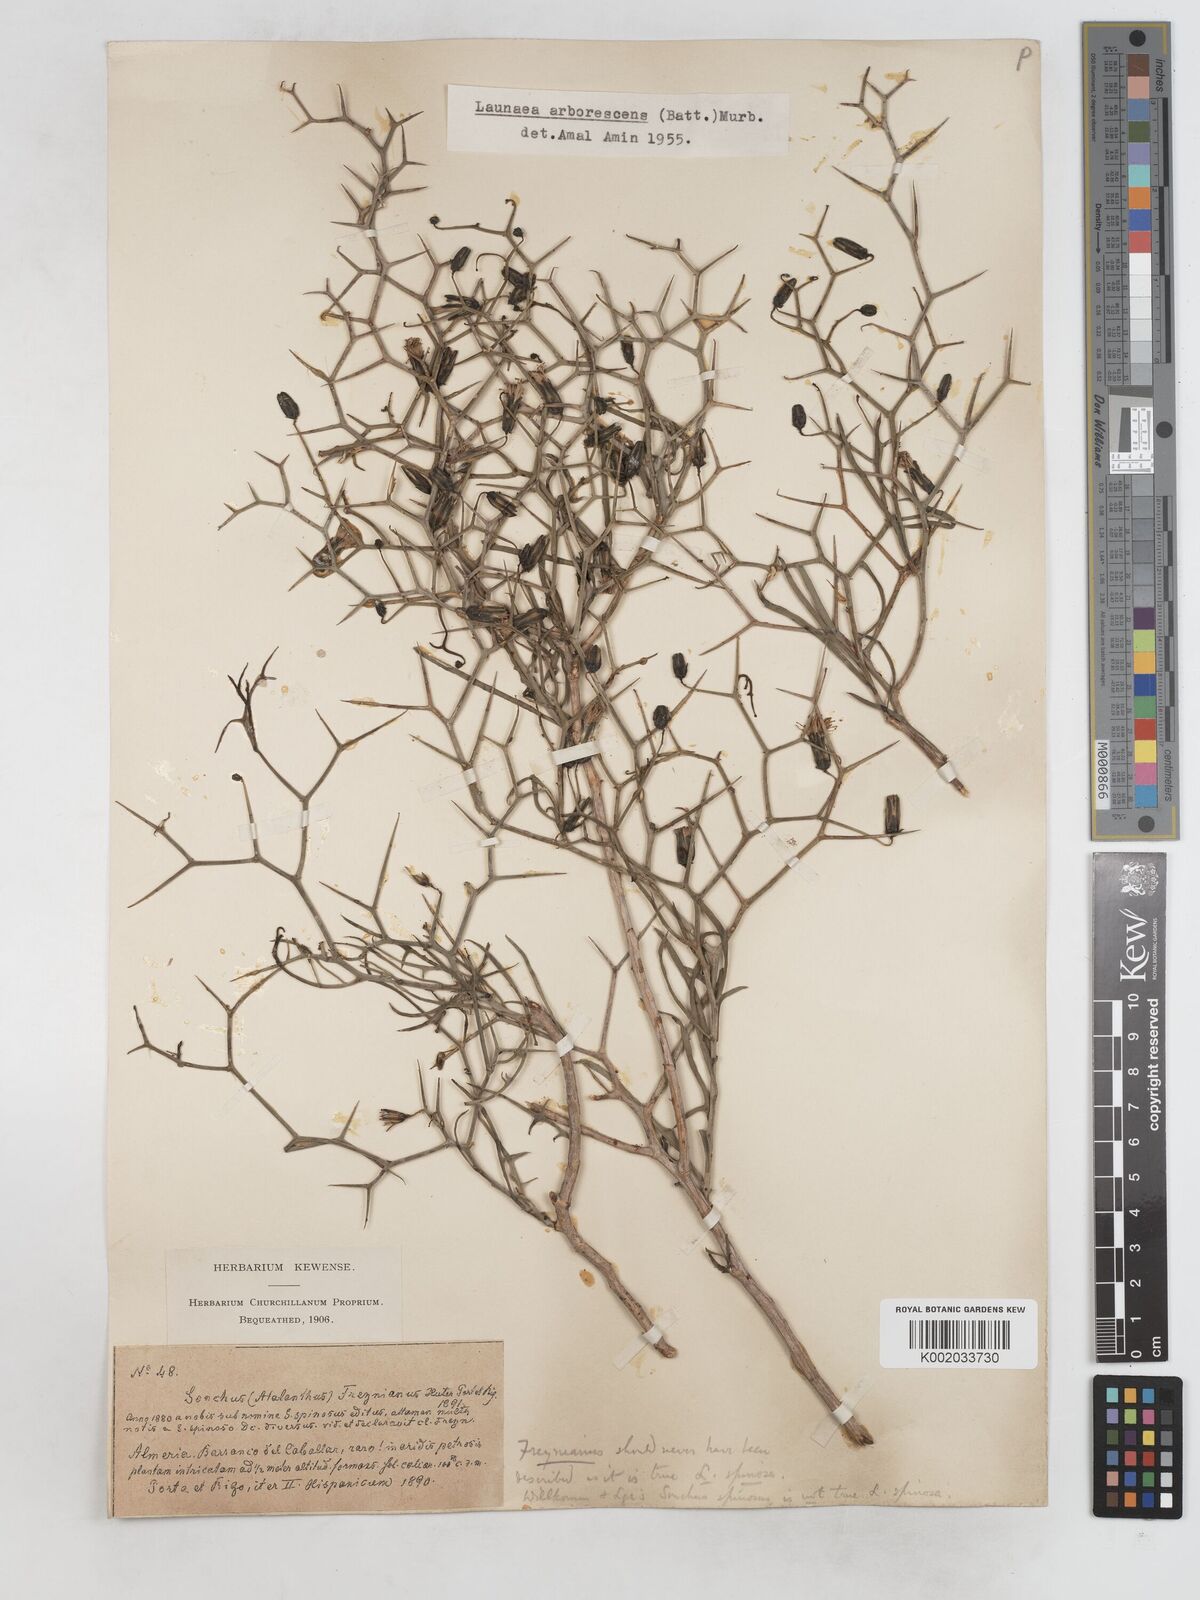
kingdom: Plantae
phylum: Tracheophyta
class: Magnoliopsida
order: Asterales
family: Asteraceae
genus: Launaea
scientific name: Launaea arborescens
